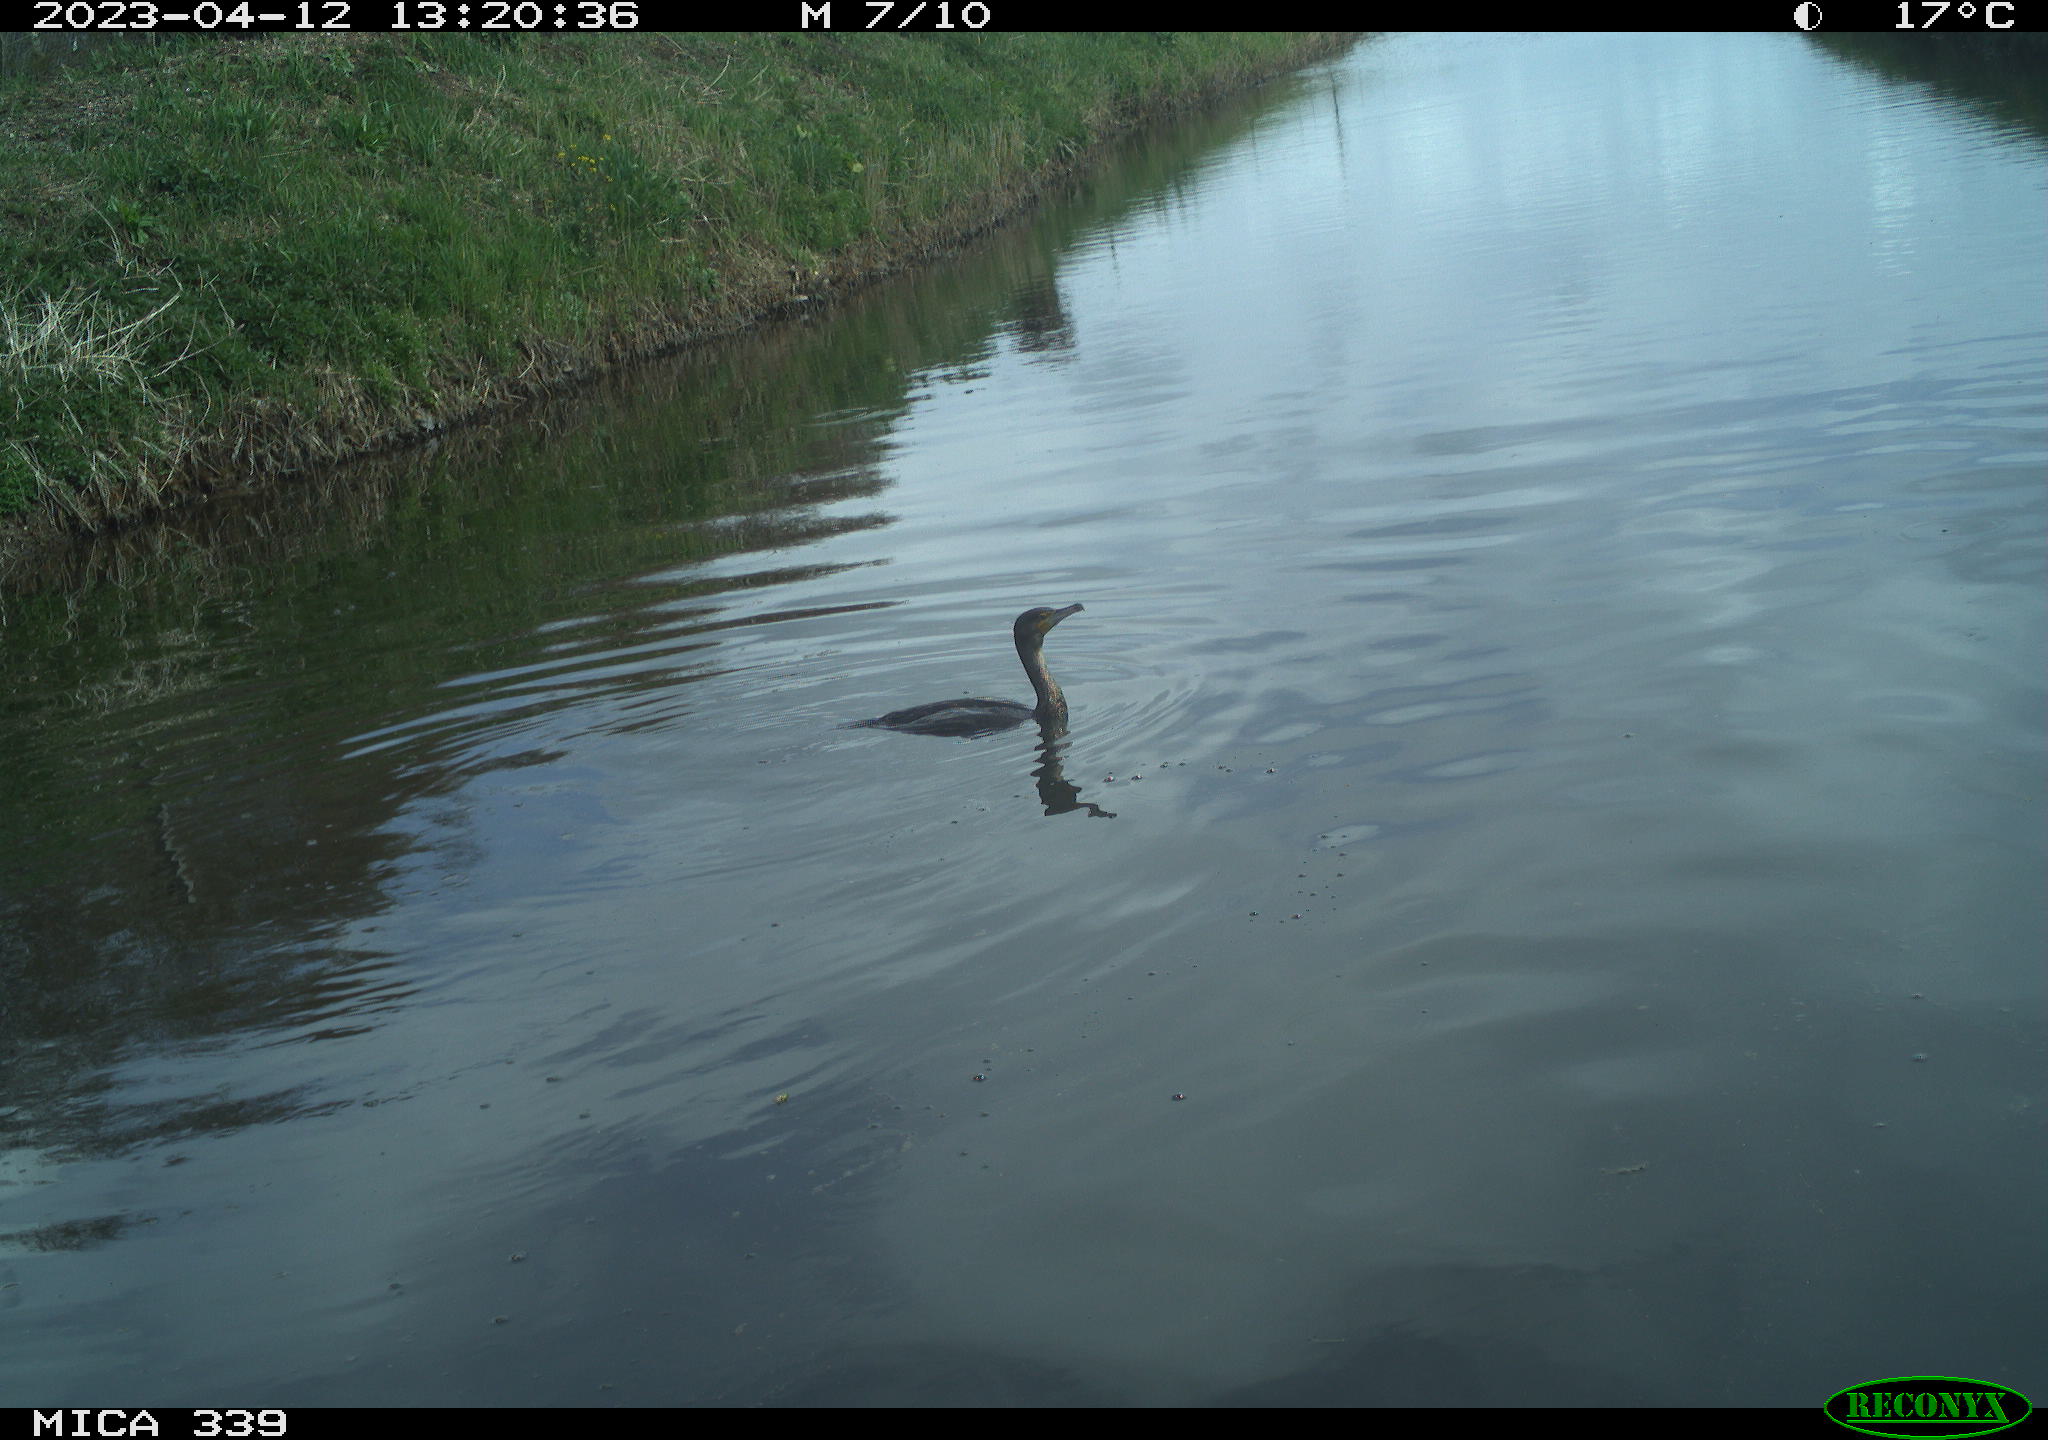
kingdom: Animalia
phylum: Chordata
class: Aves
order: Anseriformes
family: Anatidae
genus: Anas
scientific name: Anas
